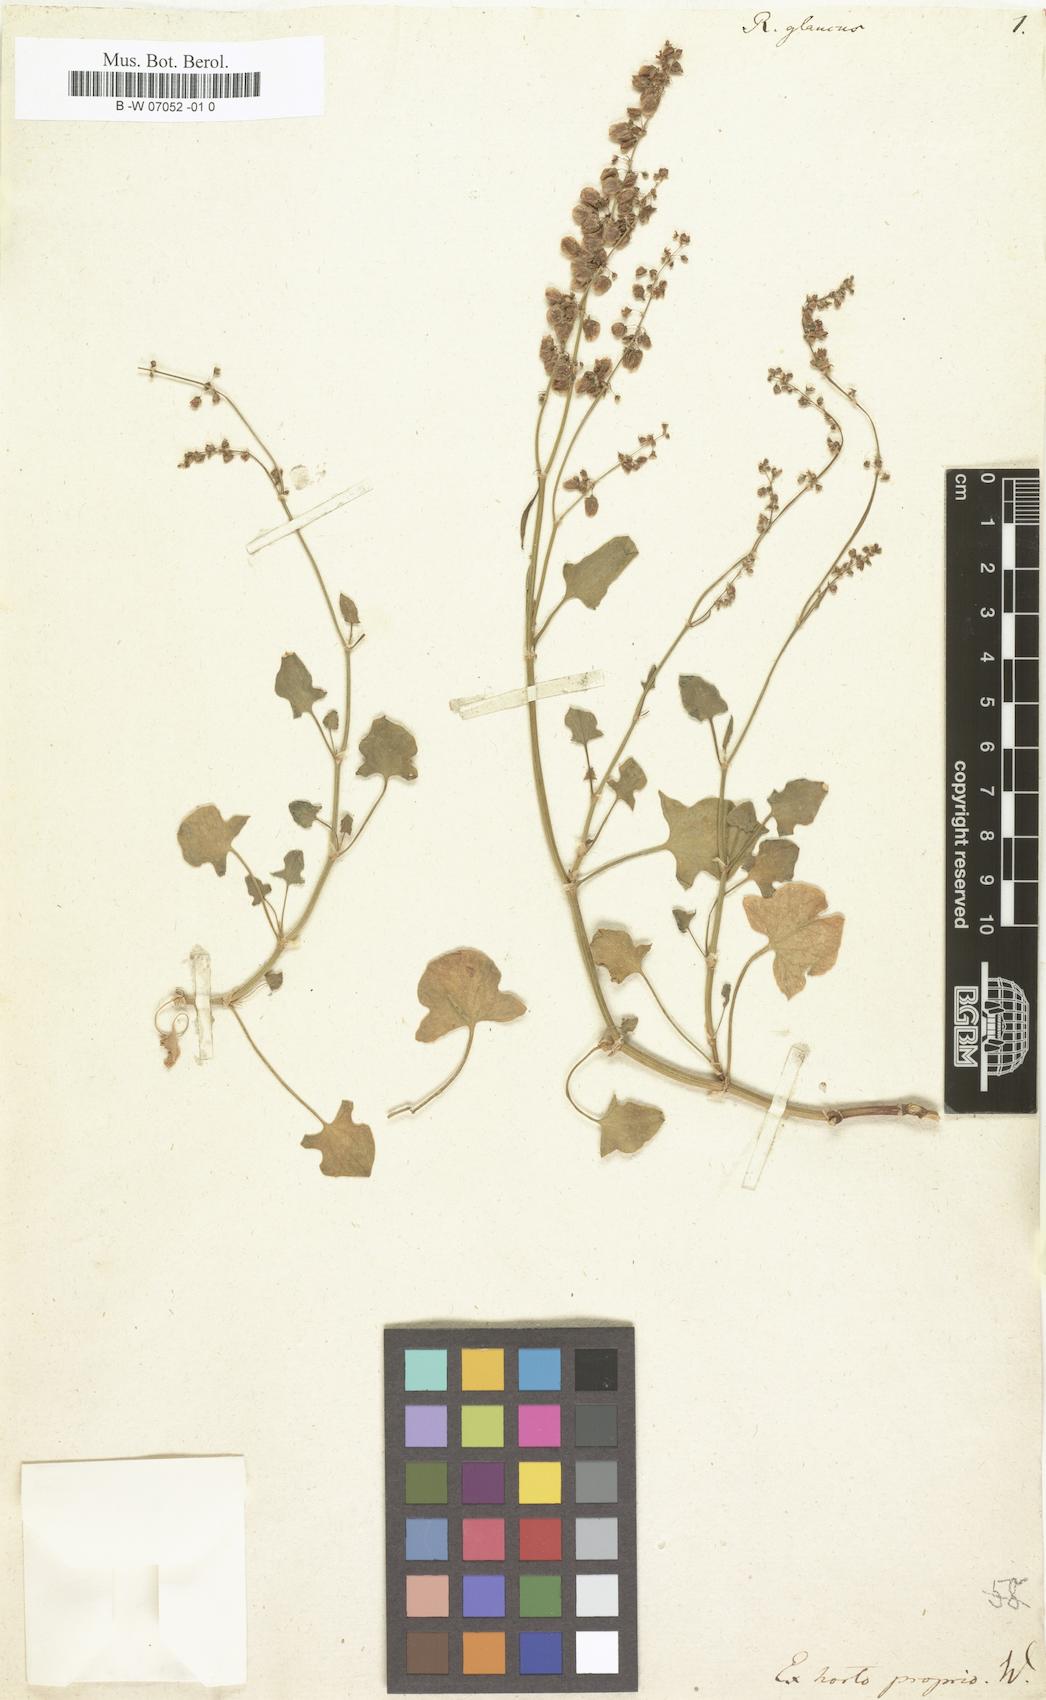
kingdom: Plantae
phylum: Tracheophyta
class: Magnoliopsida
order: Caryophyllales
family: Polygonaceae
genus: Rumex
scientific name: Rumex scutatus
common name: French sorrel
